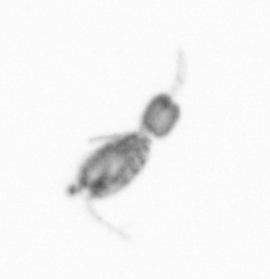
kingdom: Animalia
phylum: Arthropoda
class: Copepoda
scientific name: Copepoda
